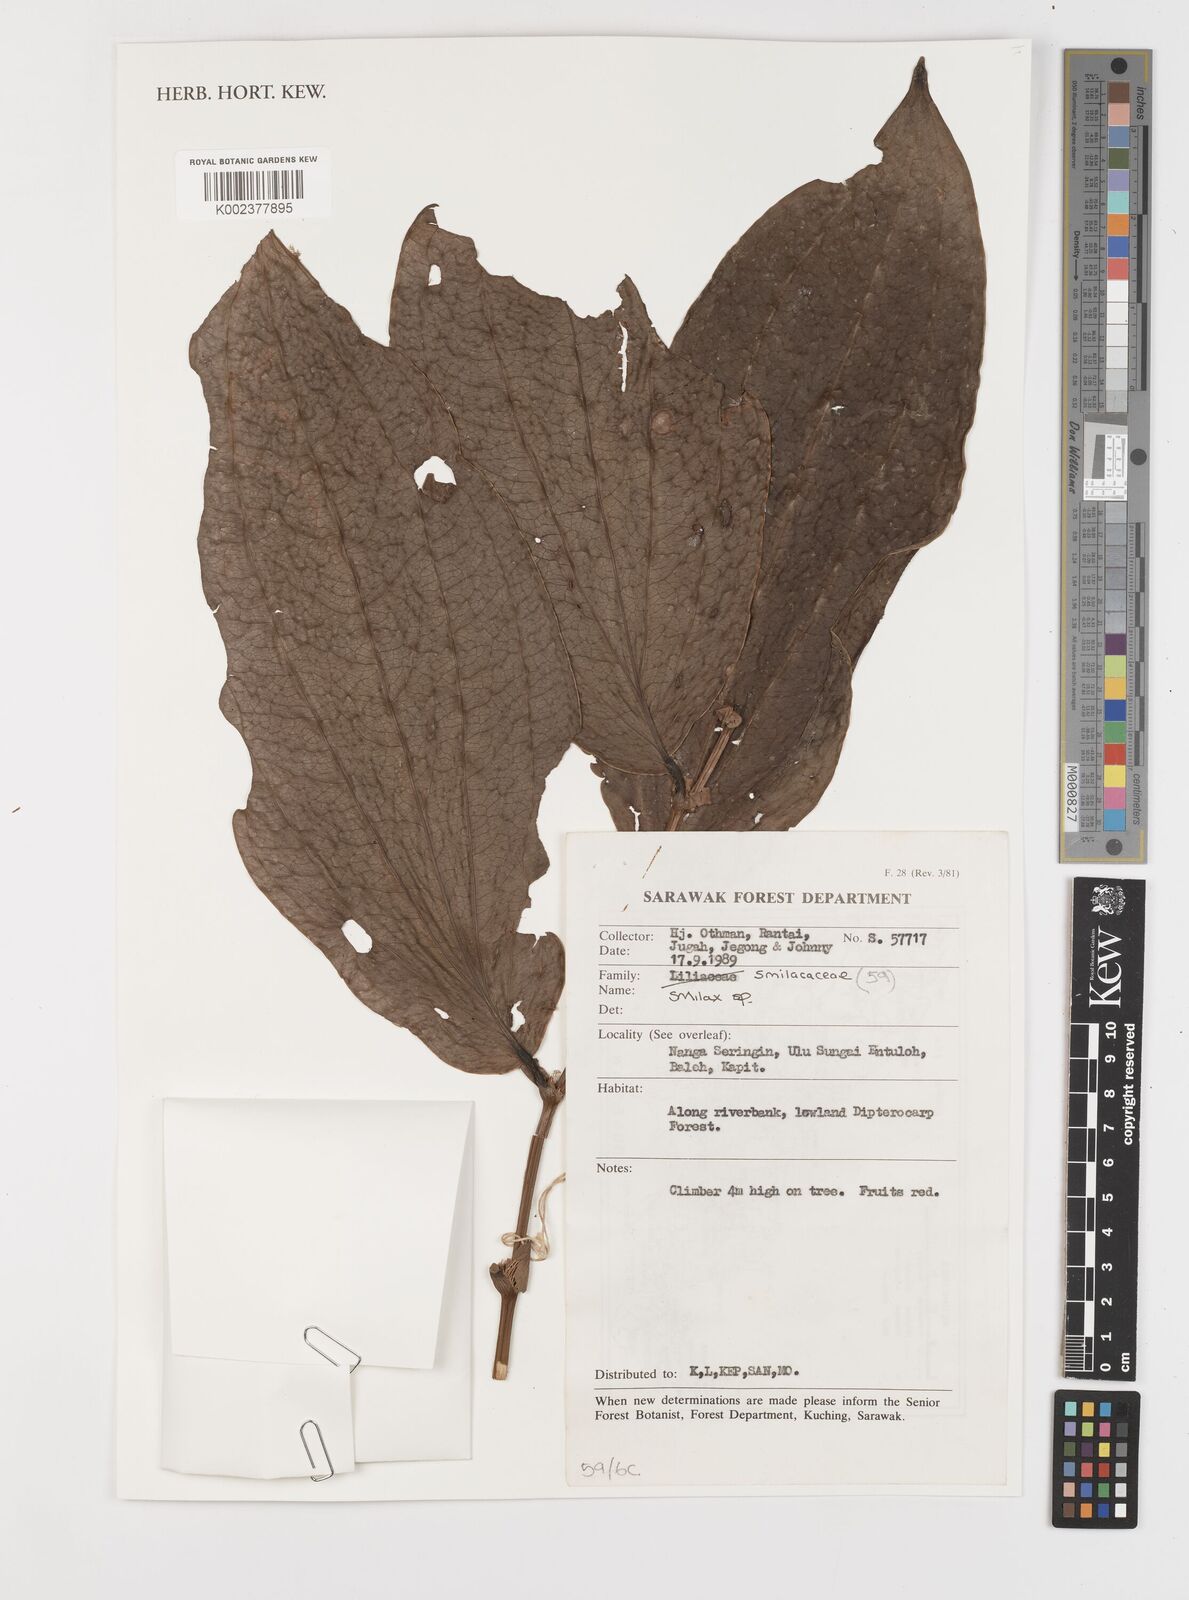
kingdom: Plantae
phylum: Tracheophyta
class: Liliopsida
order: Liliales
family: Smilacaceae
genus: Smilax
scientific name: Smilax
